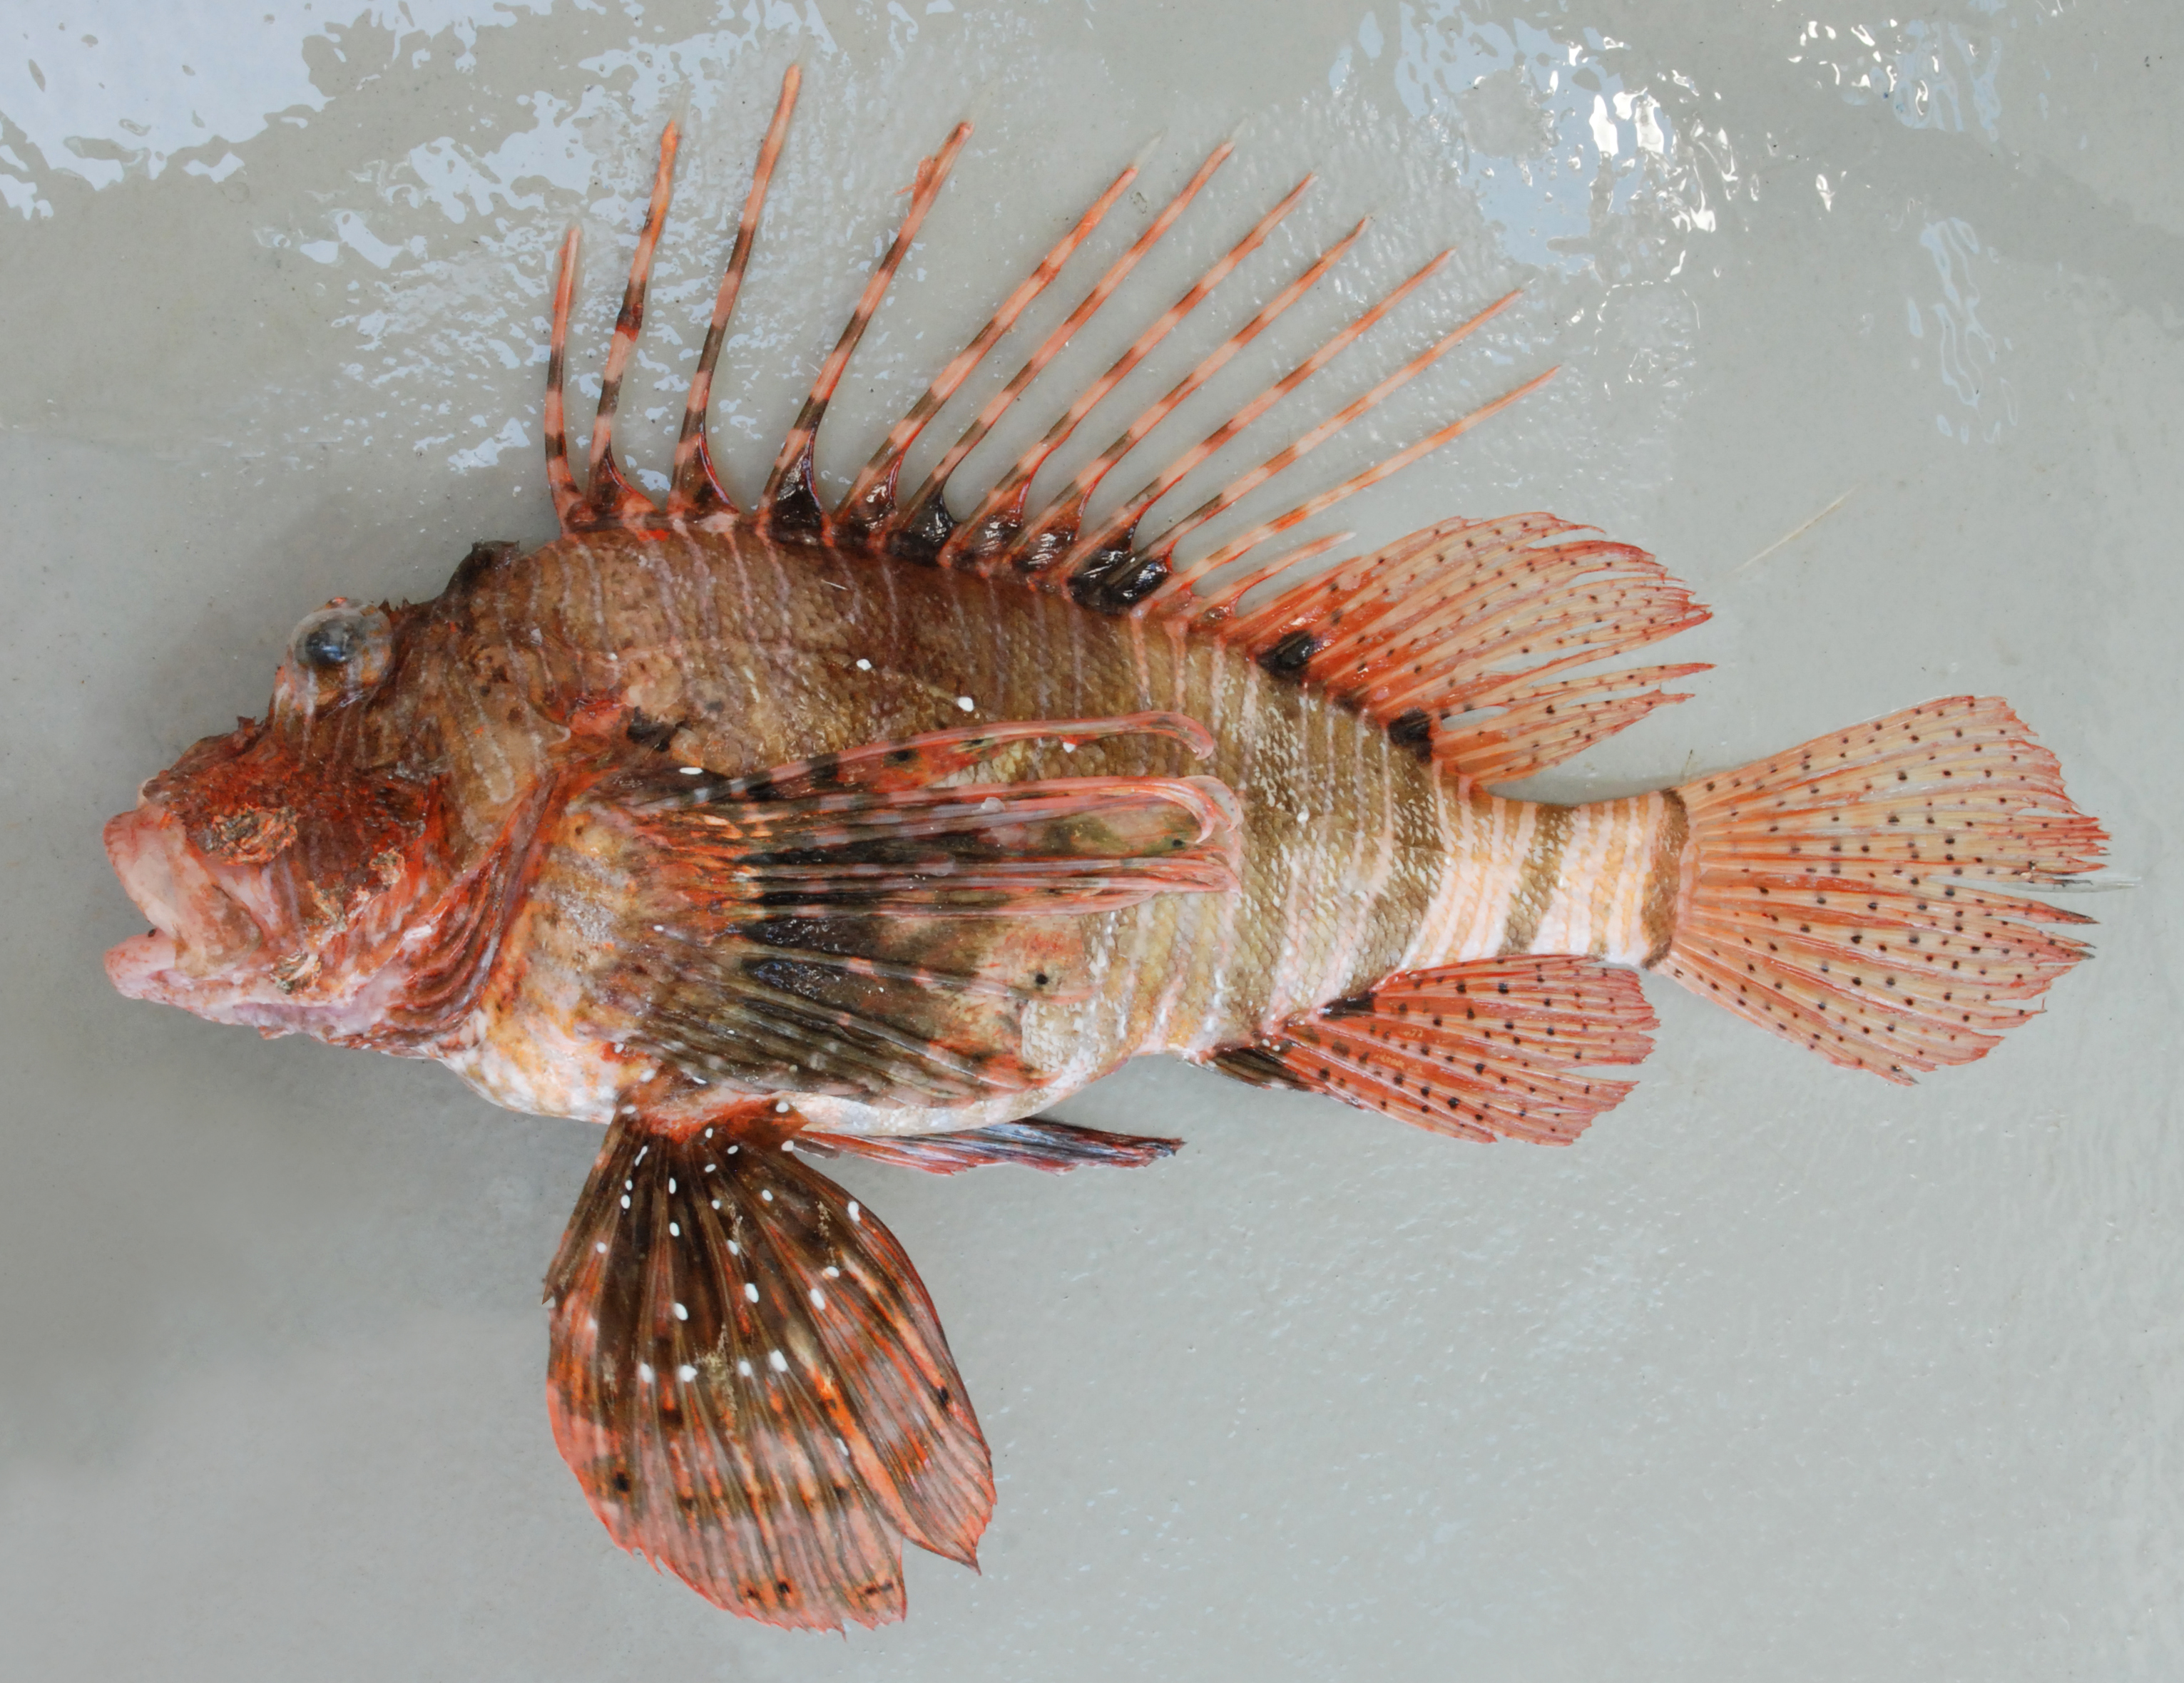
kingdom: Animalia
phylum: Chordata
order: Scorpaeniformes
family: Scorpaenidae
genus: Pterois
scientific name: Pterois miles
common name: Devil firefish
